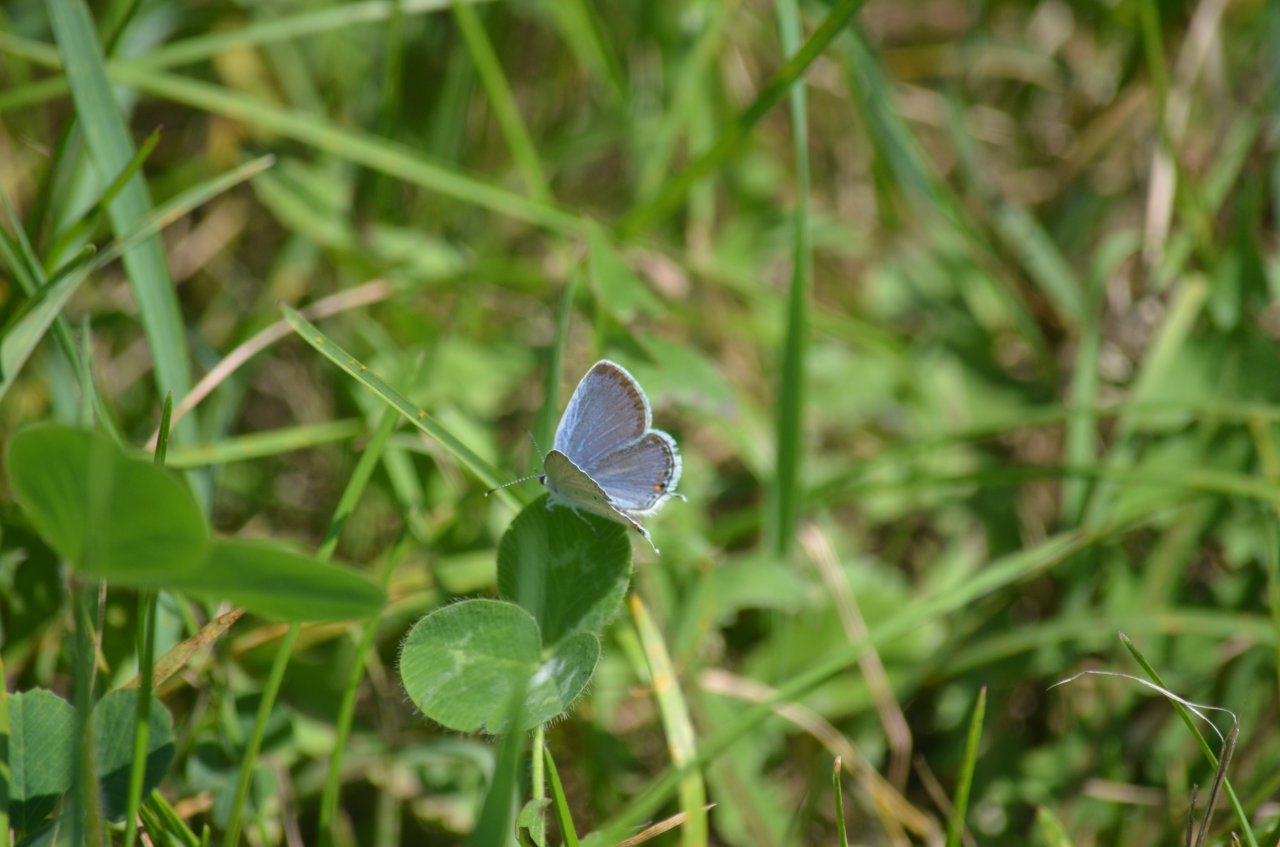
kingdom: Animalia
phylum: Arthropoda
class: Insecta
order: Lepidoptera
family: Lycaenidae
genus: Elkalyce
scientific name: Elkalyce comyntas
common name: Eastern Tailed-Blue
